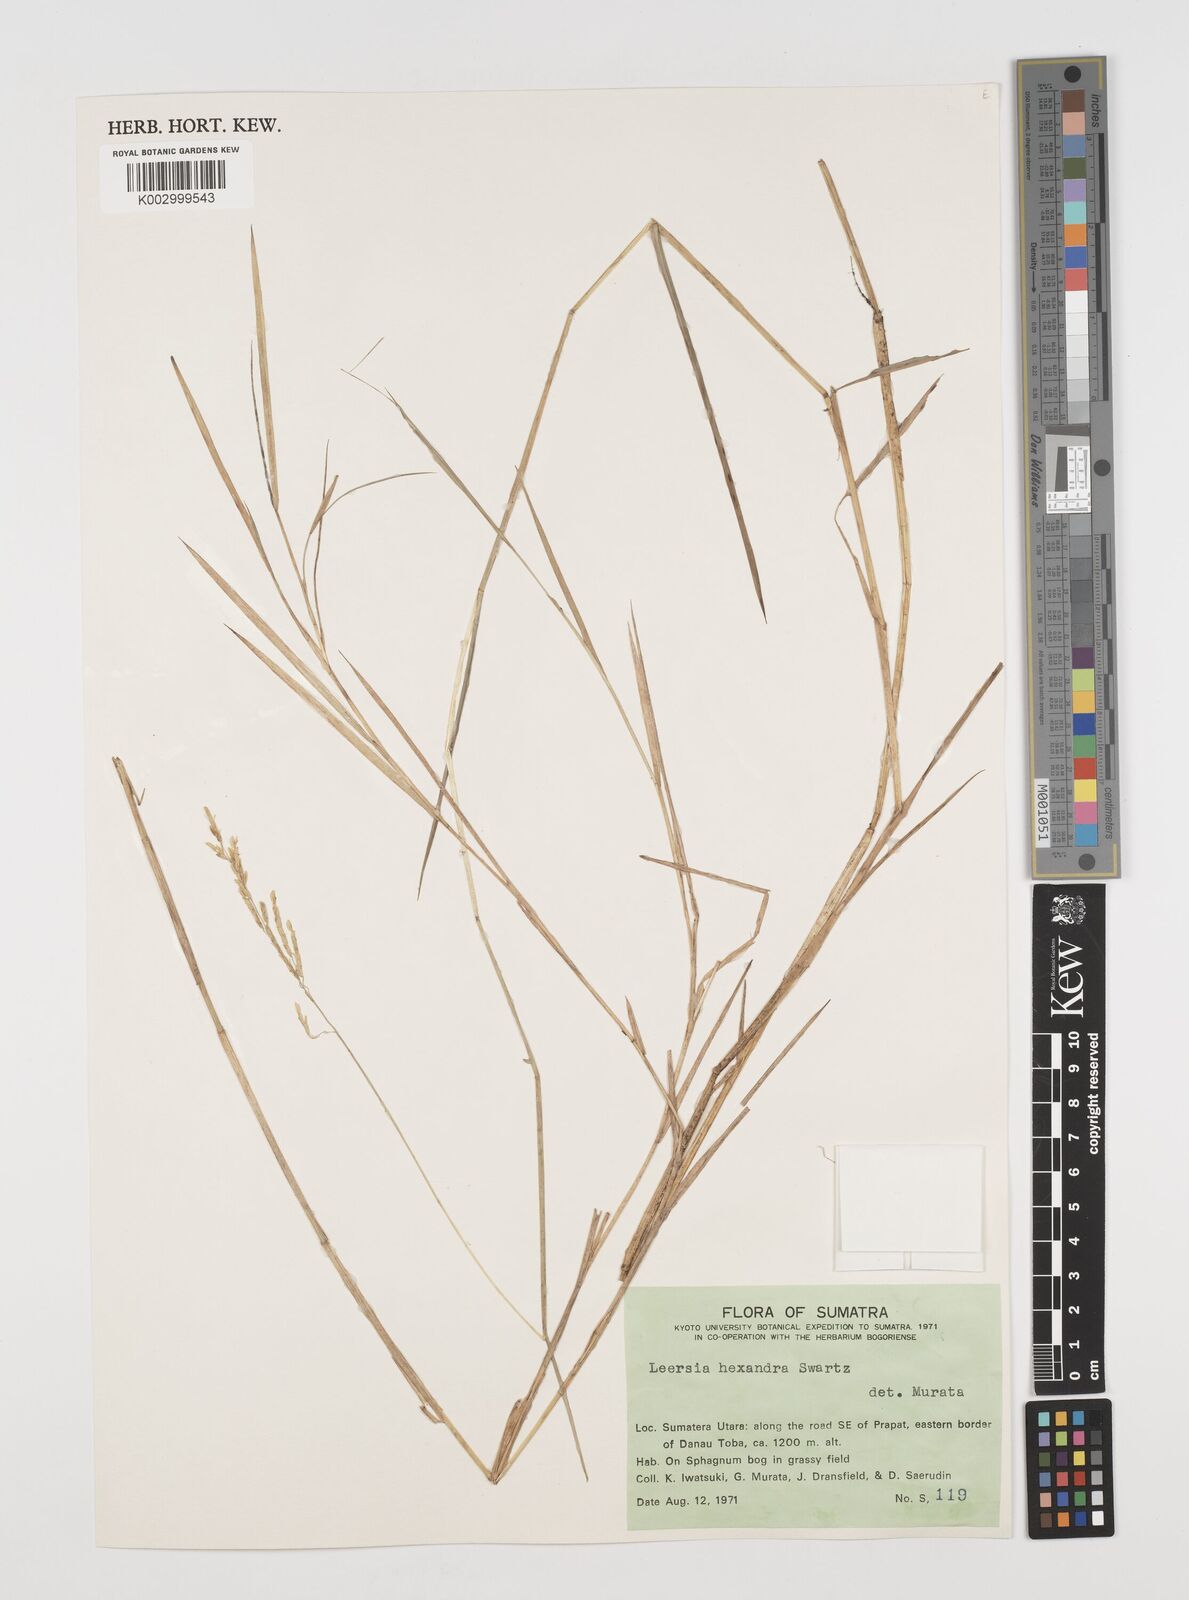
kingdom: Plantae
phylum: Tracheophyta
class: Liliopsida
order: Poales
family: Poaceae
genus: Leersia
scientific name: Leersia hexandra
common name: Southern cut grass
